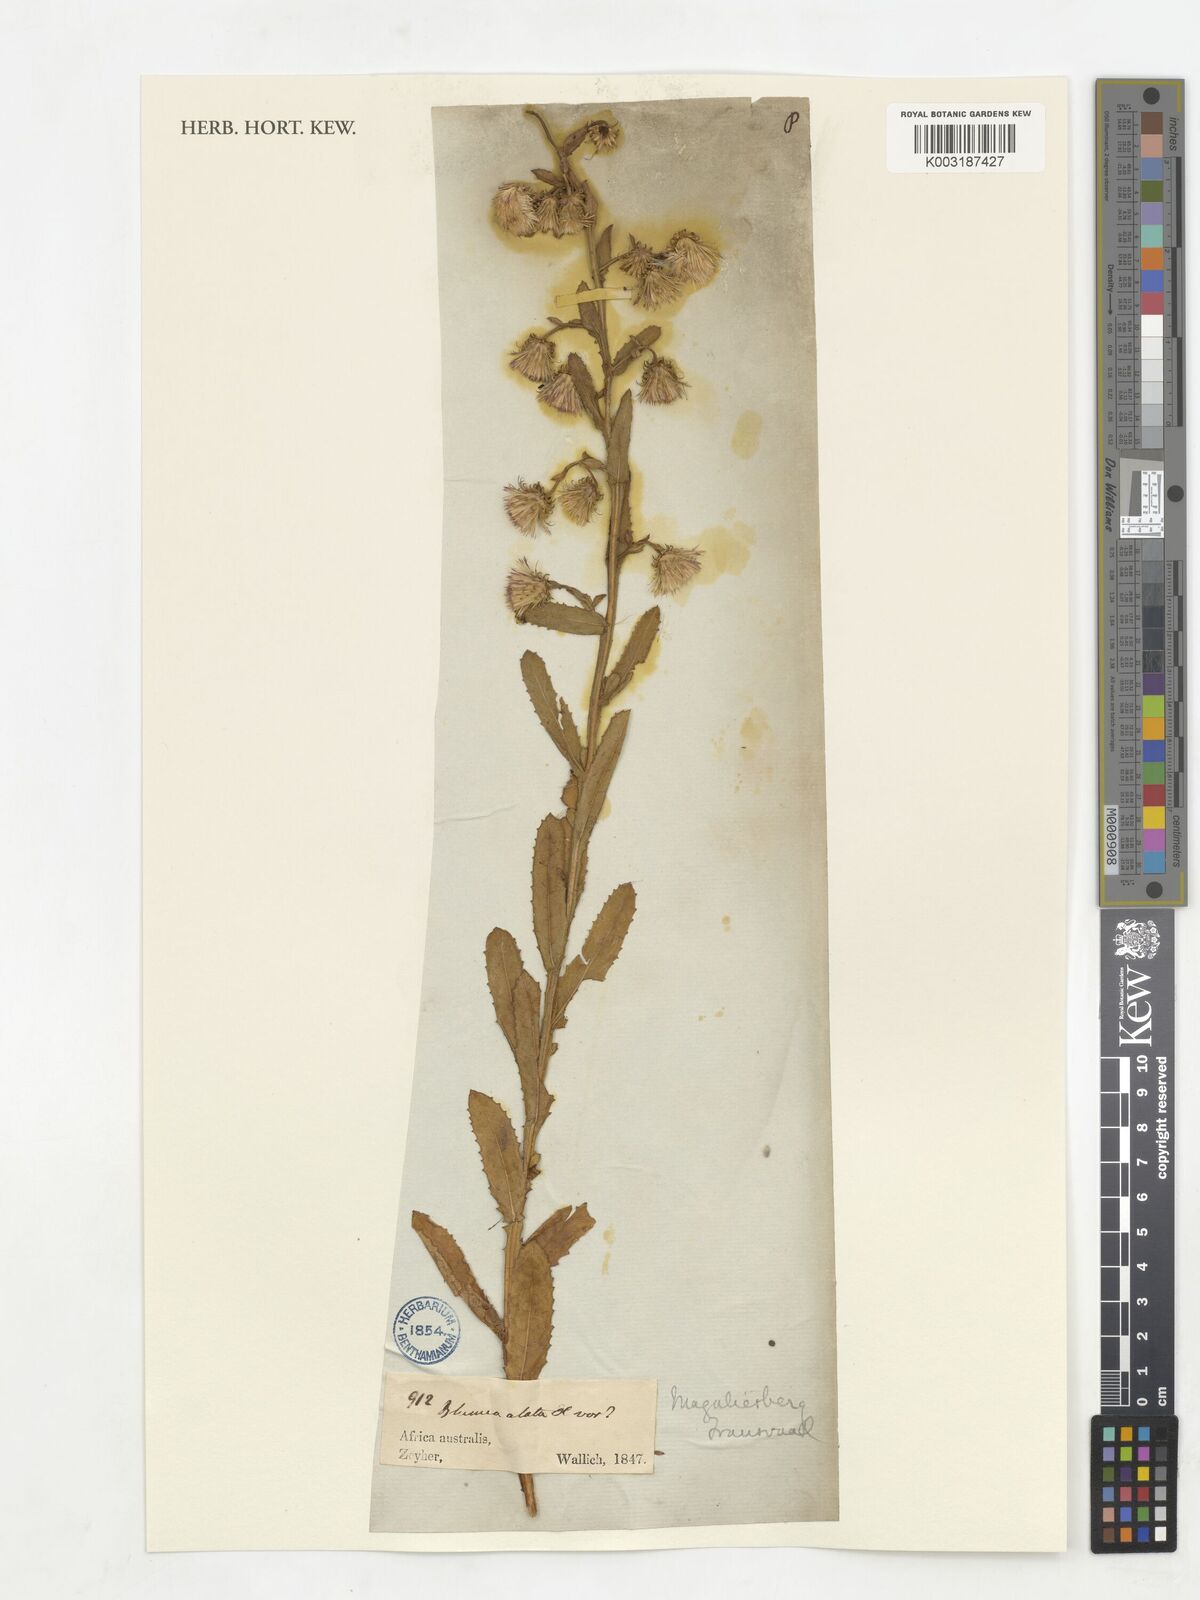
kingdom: Plantae
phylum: Tracheophyta
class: Magnoliopsida
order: Asterales
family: Asteraceae
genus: Laggera
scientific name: Laggera alata
